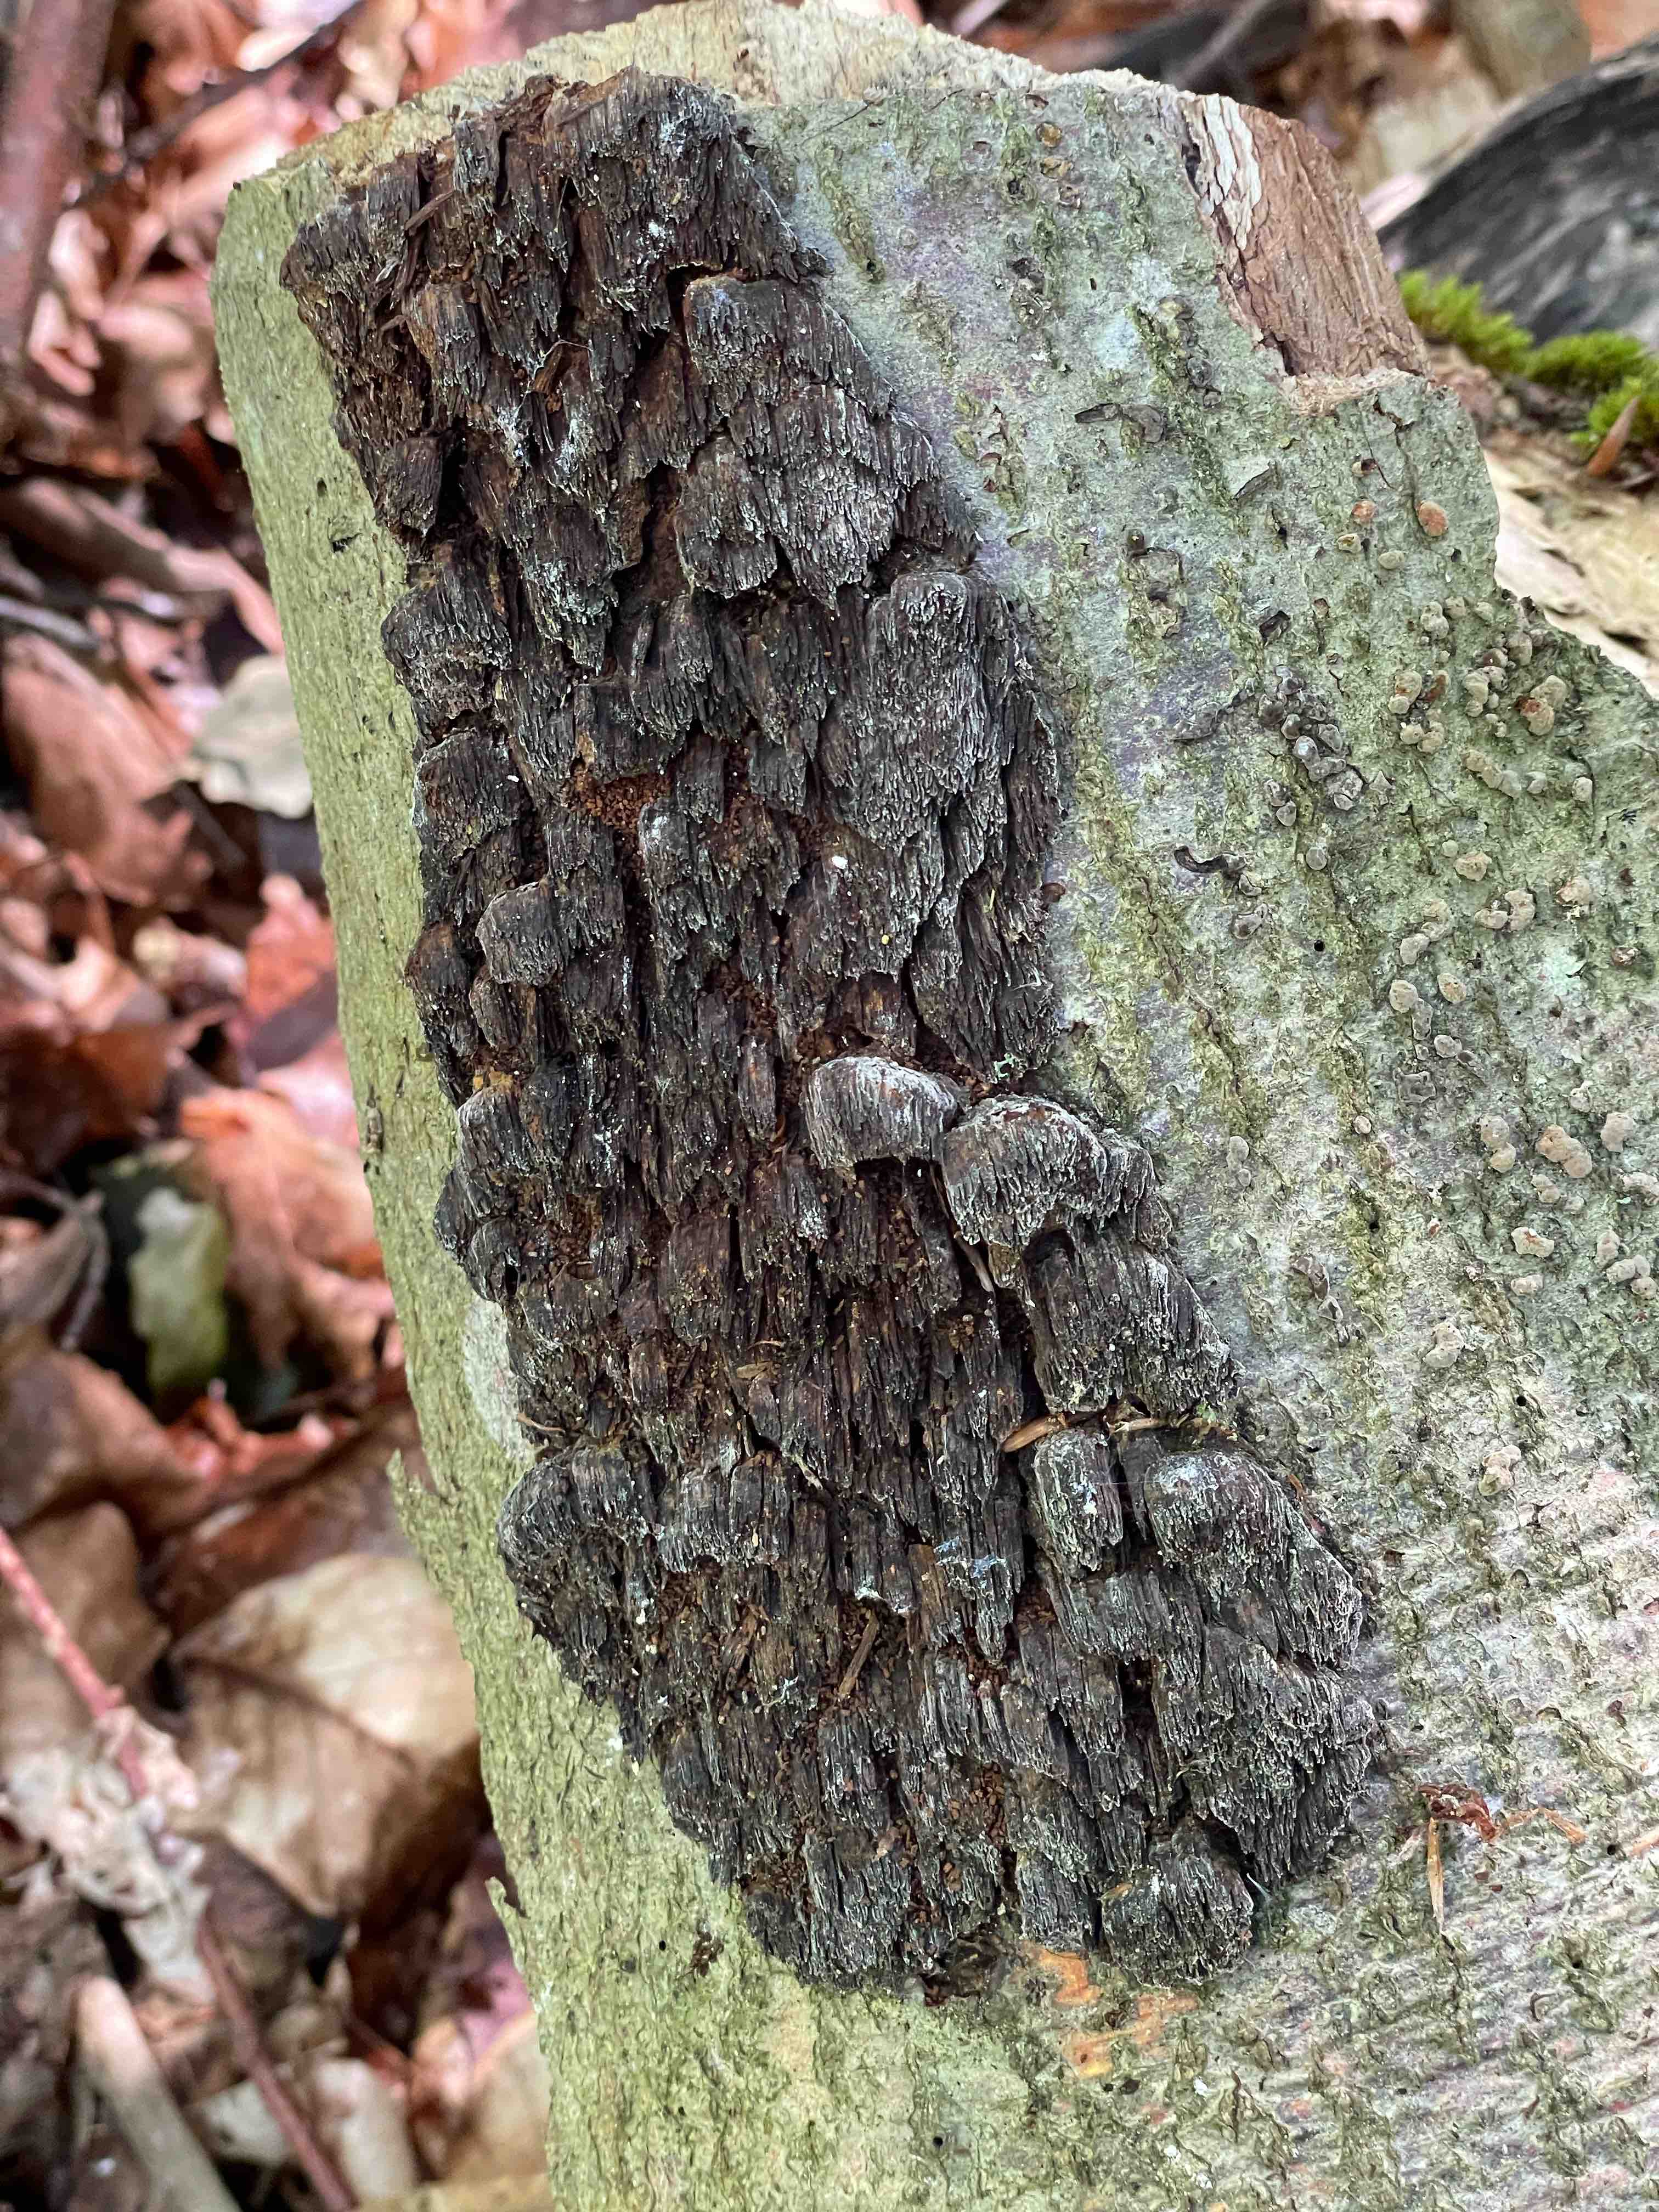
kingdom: Fungi
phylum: Basidiomycota
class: Agaricomycetes
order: Hymenochaetales
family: Hymenochaetaceae
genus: Mensularia
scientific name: Mensularia nodulosa
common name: bøge-spejlporesvamp
